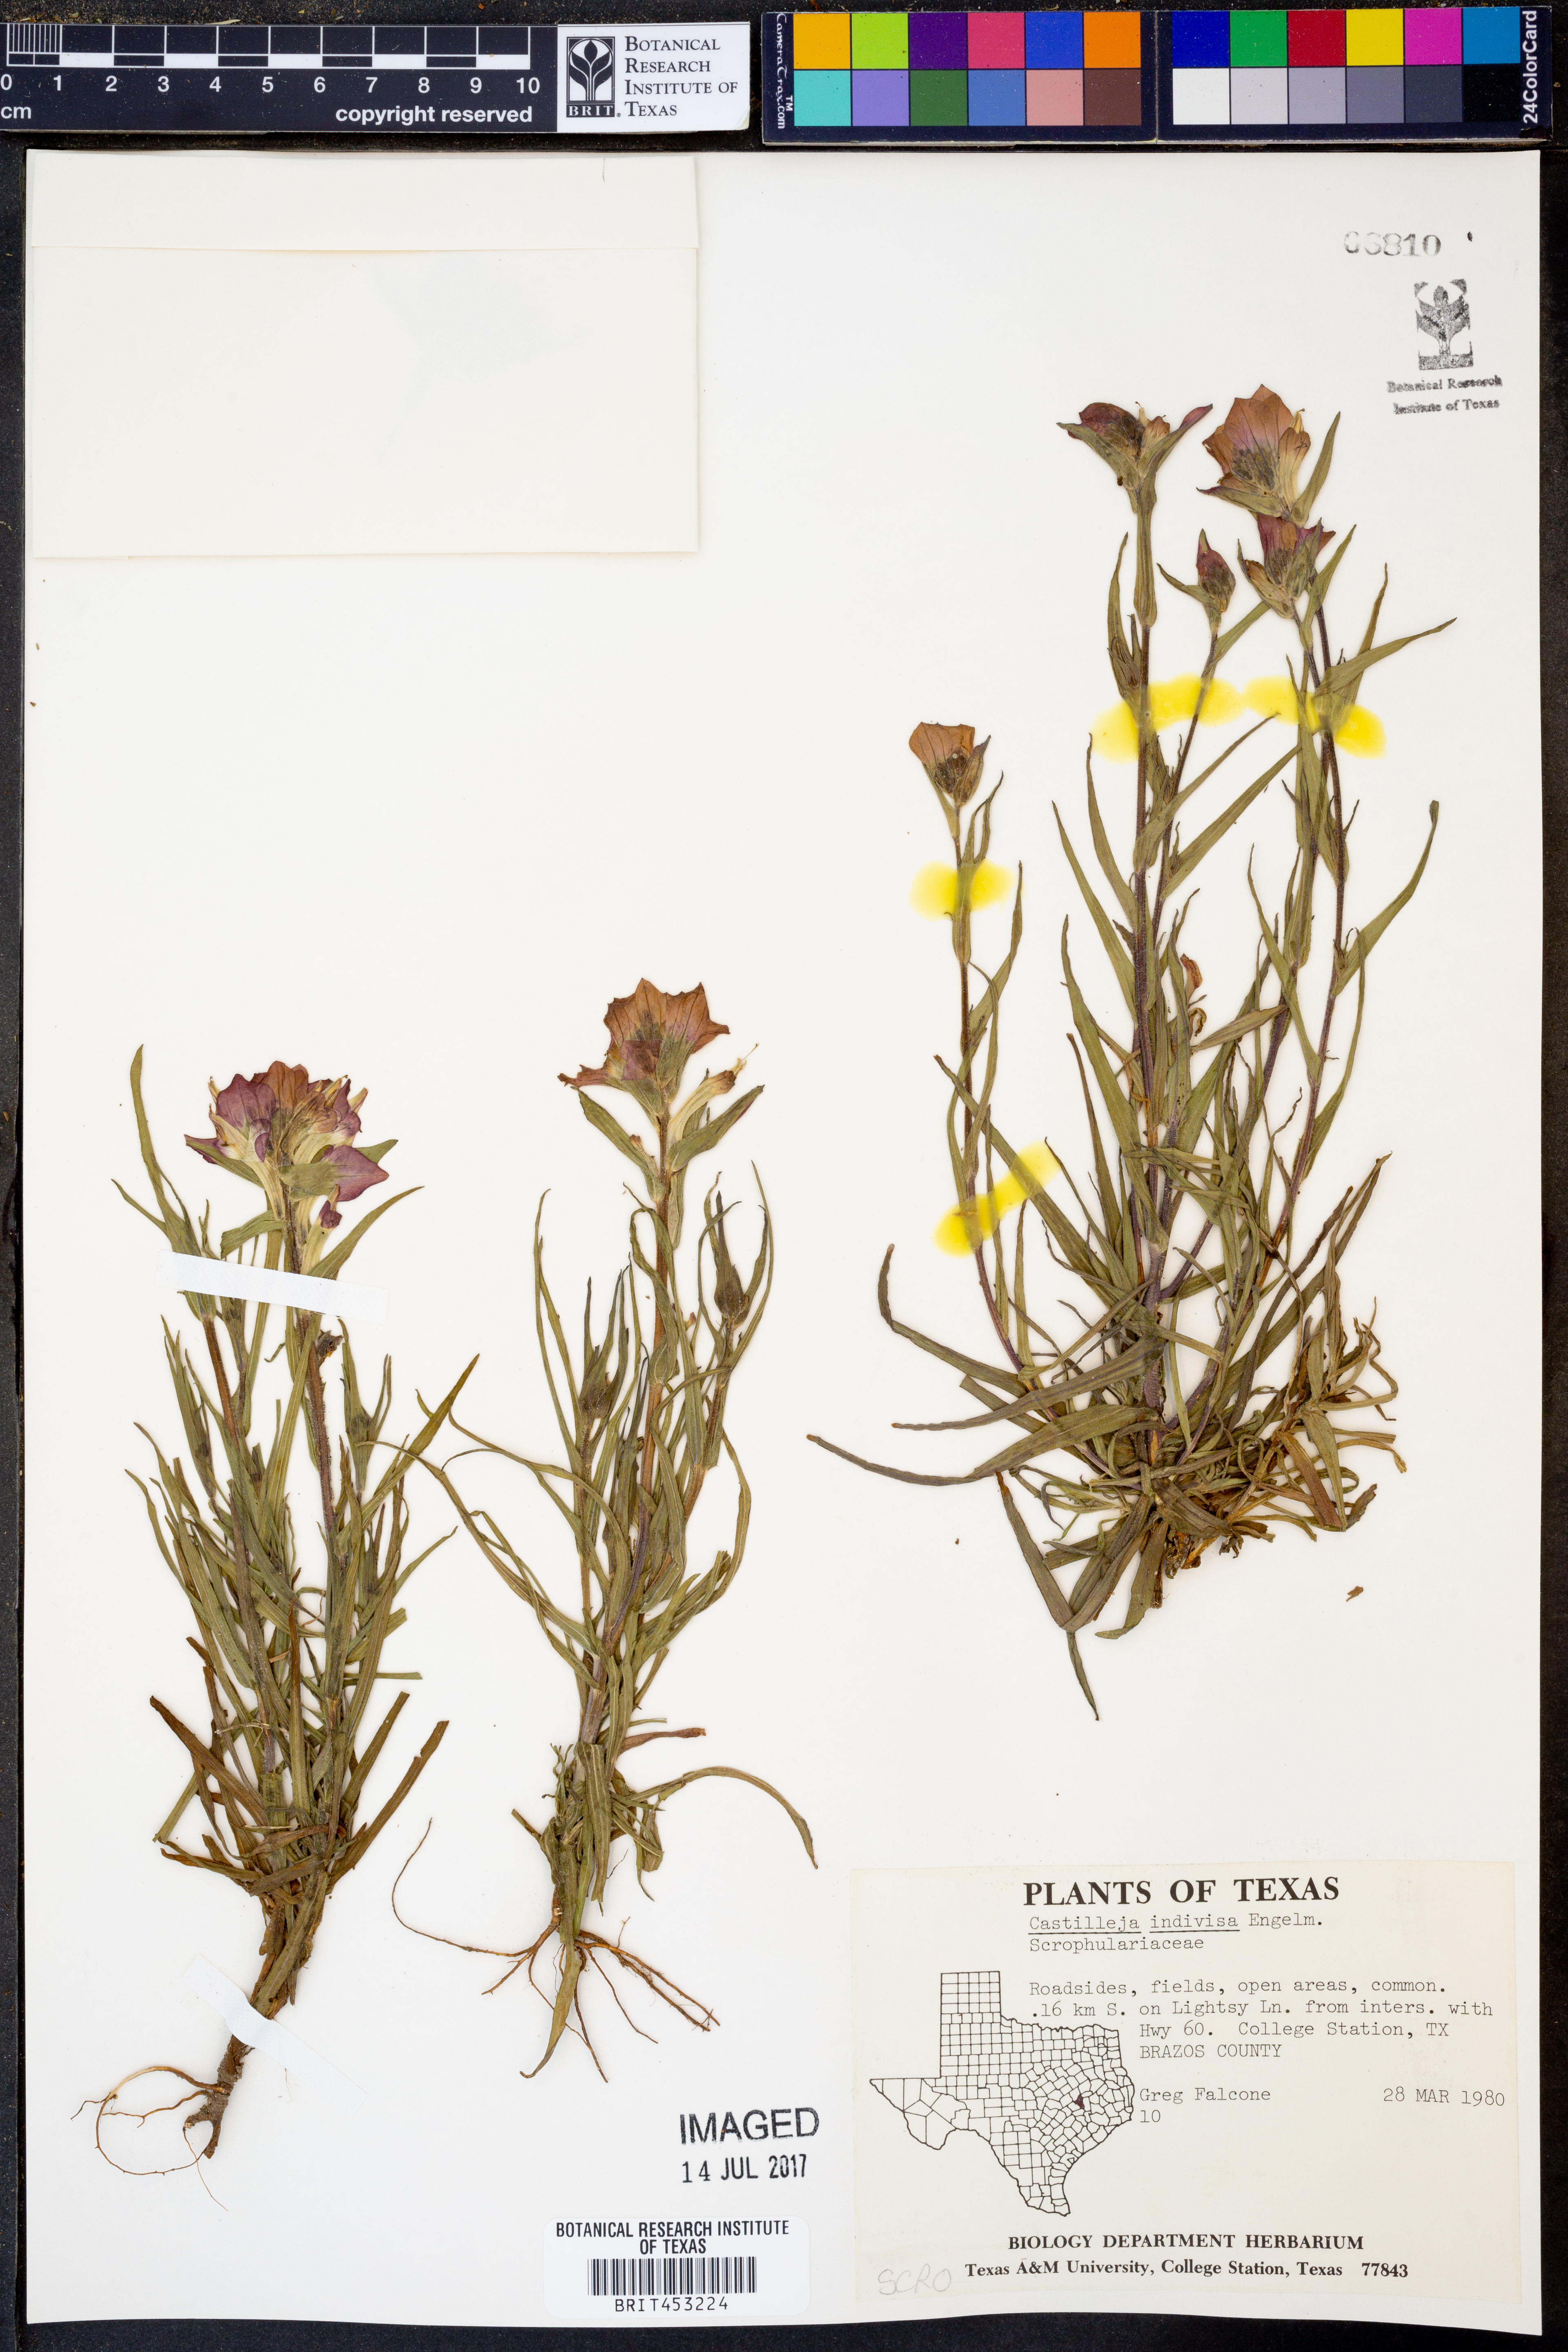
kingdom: Plantae
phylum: Tracheophyta
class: Magnoliopsida
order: Lamiales
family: Orobanchaceae
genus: Castilleja
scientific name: Castilleja indivisa
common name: Texas paintbrush
